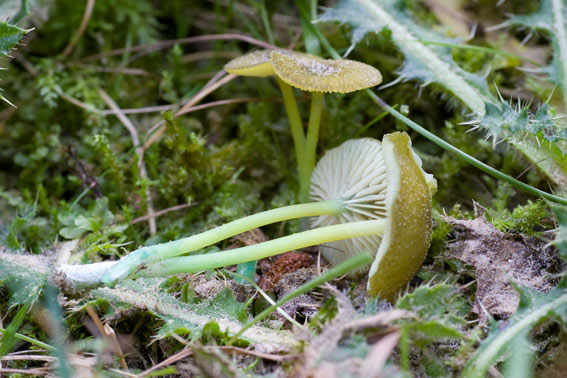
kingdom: Fungi
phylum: Basidiomycota
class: Agaricomycetes
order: Agaricales
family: Entolomataceae
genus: Entoloma
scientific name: Entoloma incanum
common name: grøngul rødblad
